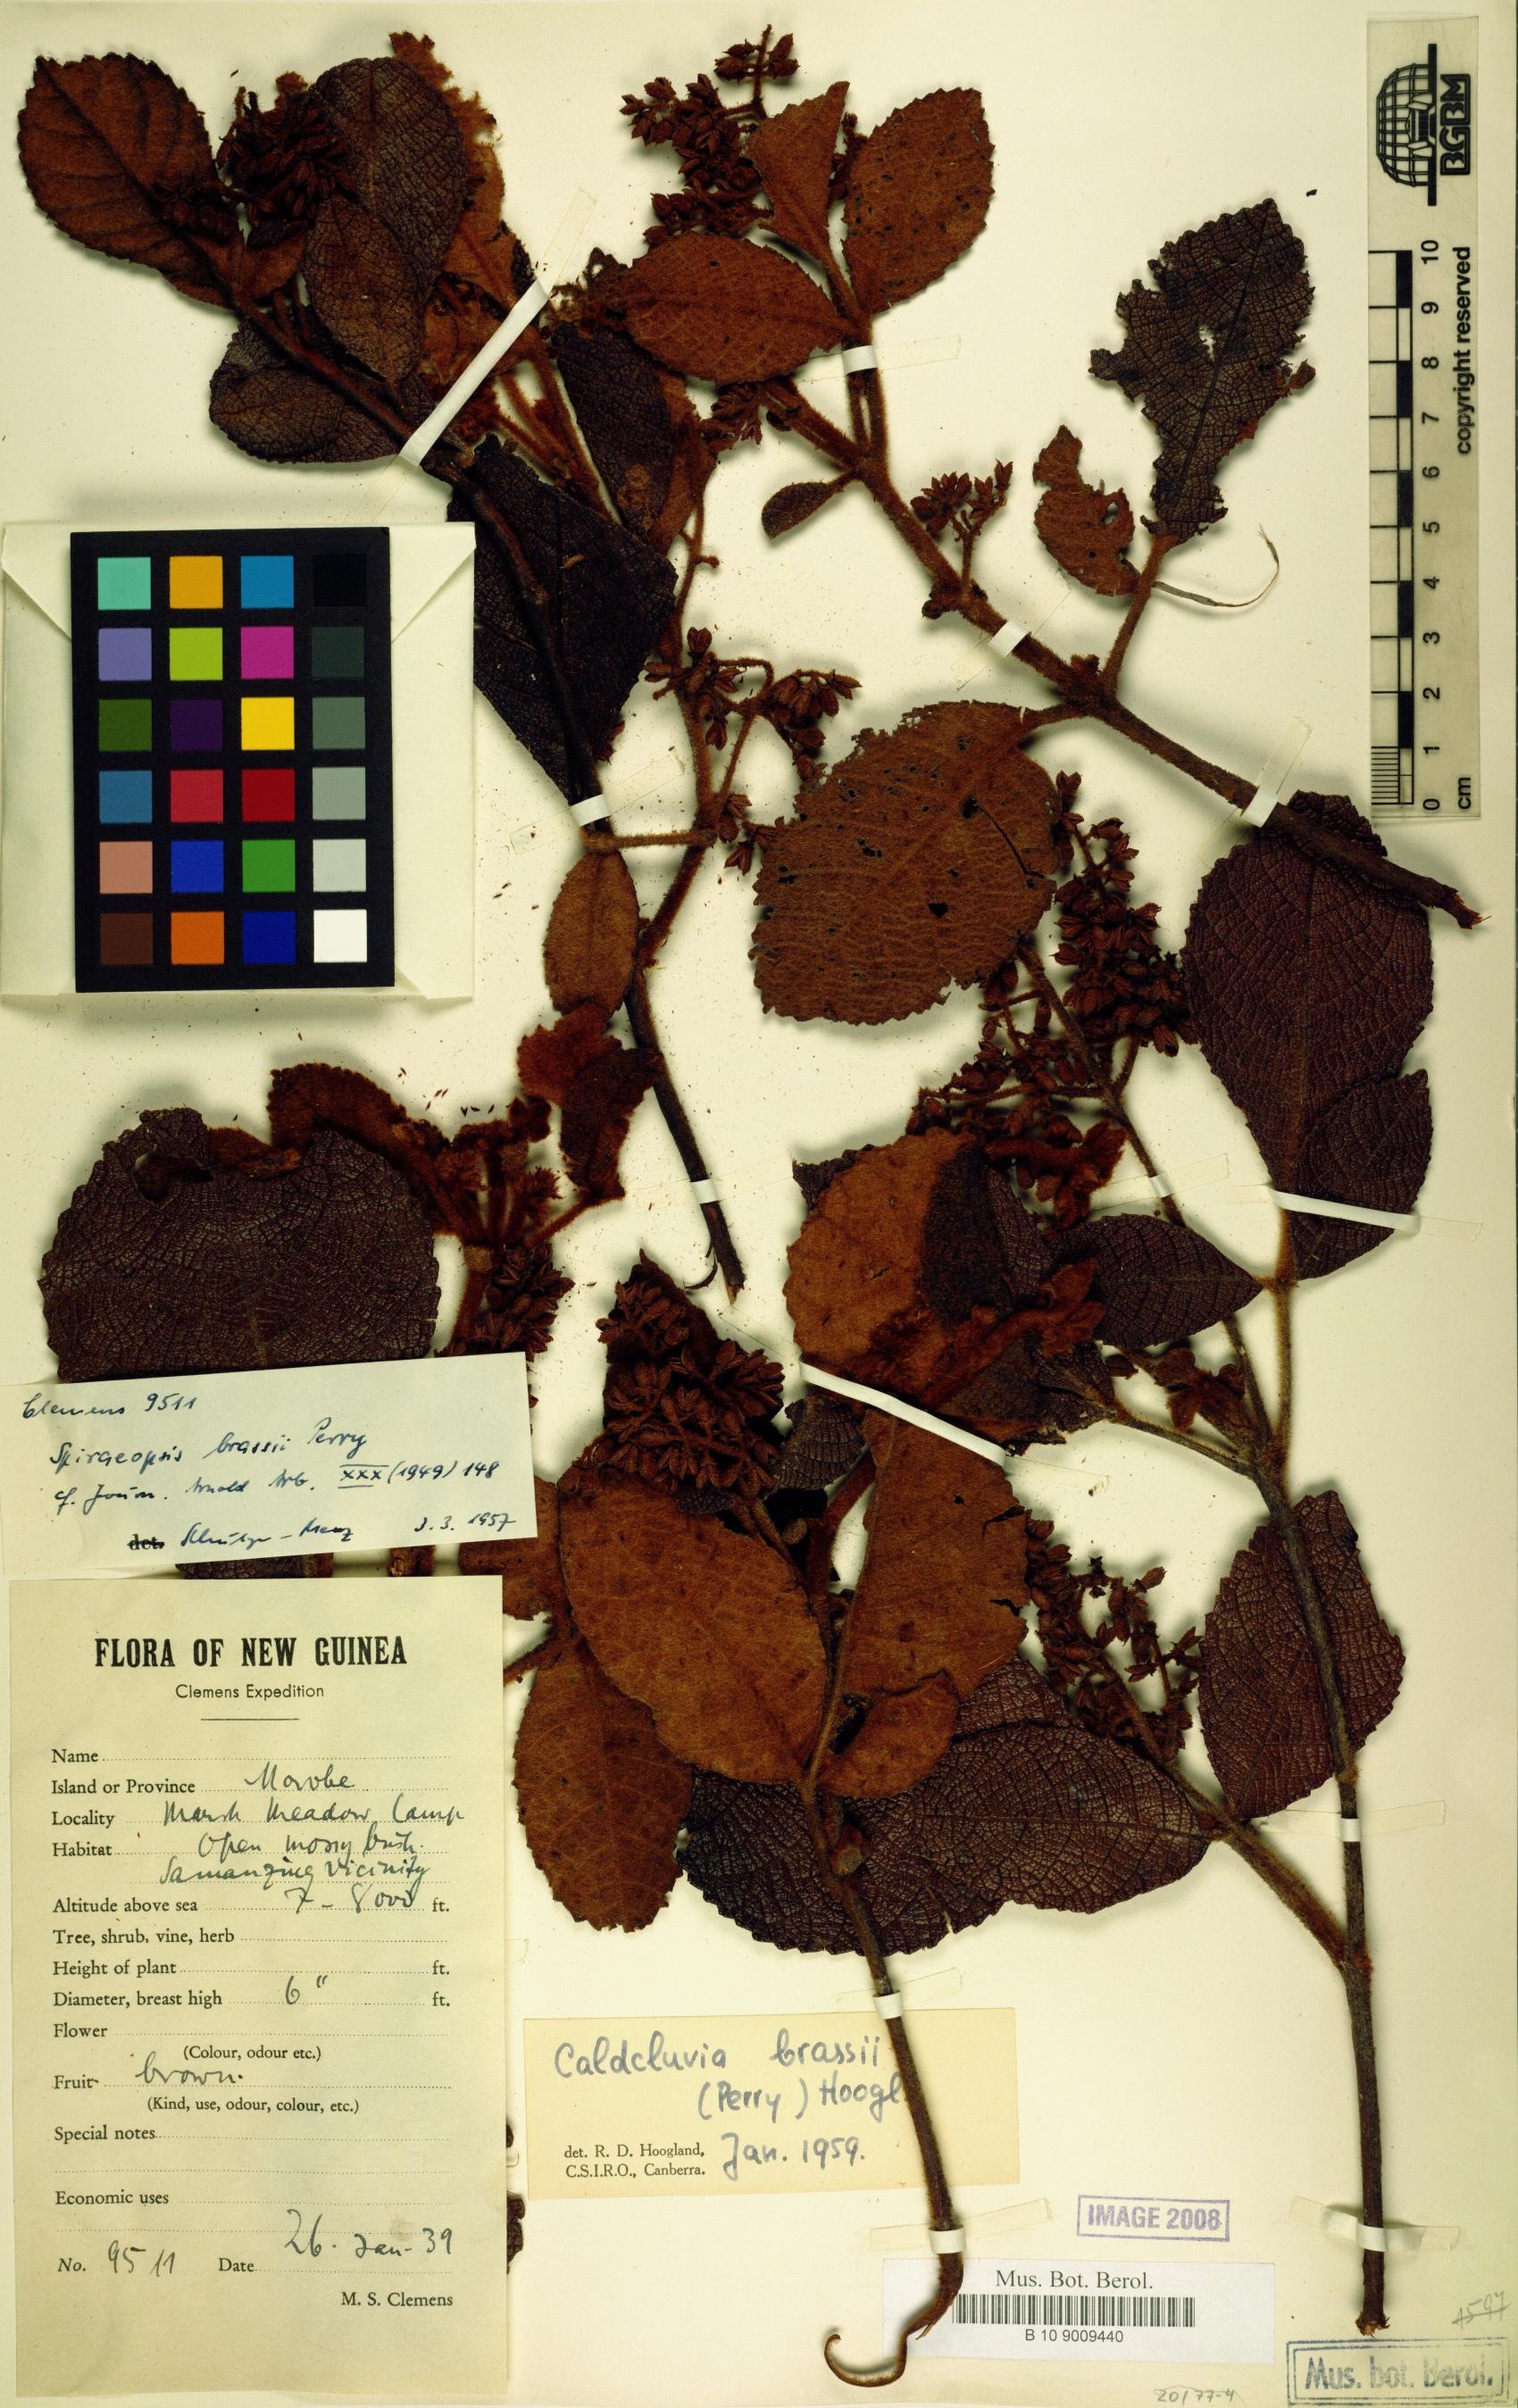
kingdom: Plantae
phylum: Tracheophyta
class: Magnoliopsida
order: Oxalidales
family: Cunoniaceae
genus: Ackama
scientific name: Ackama brassii
